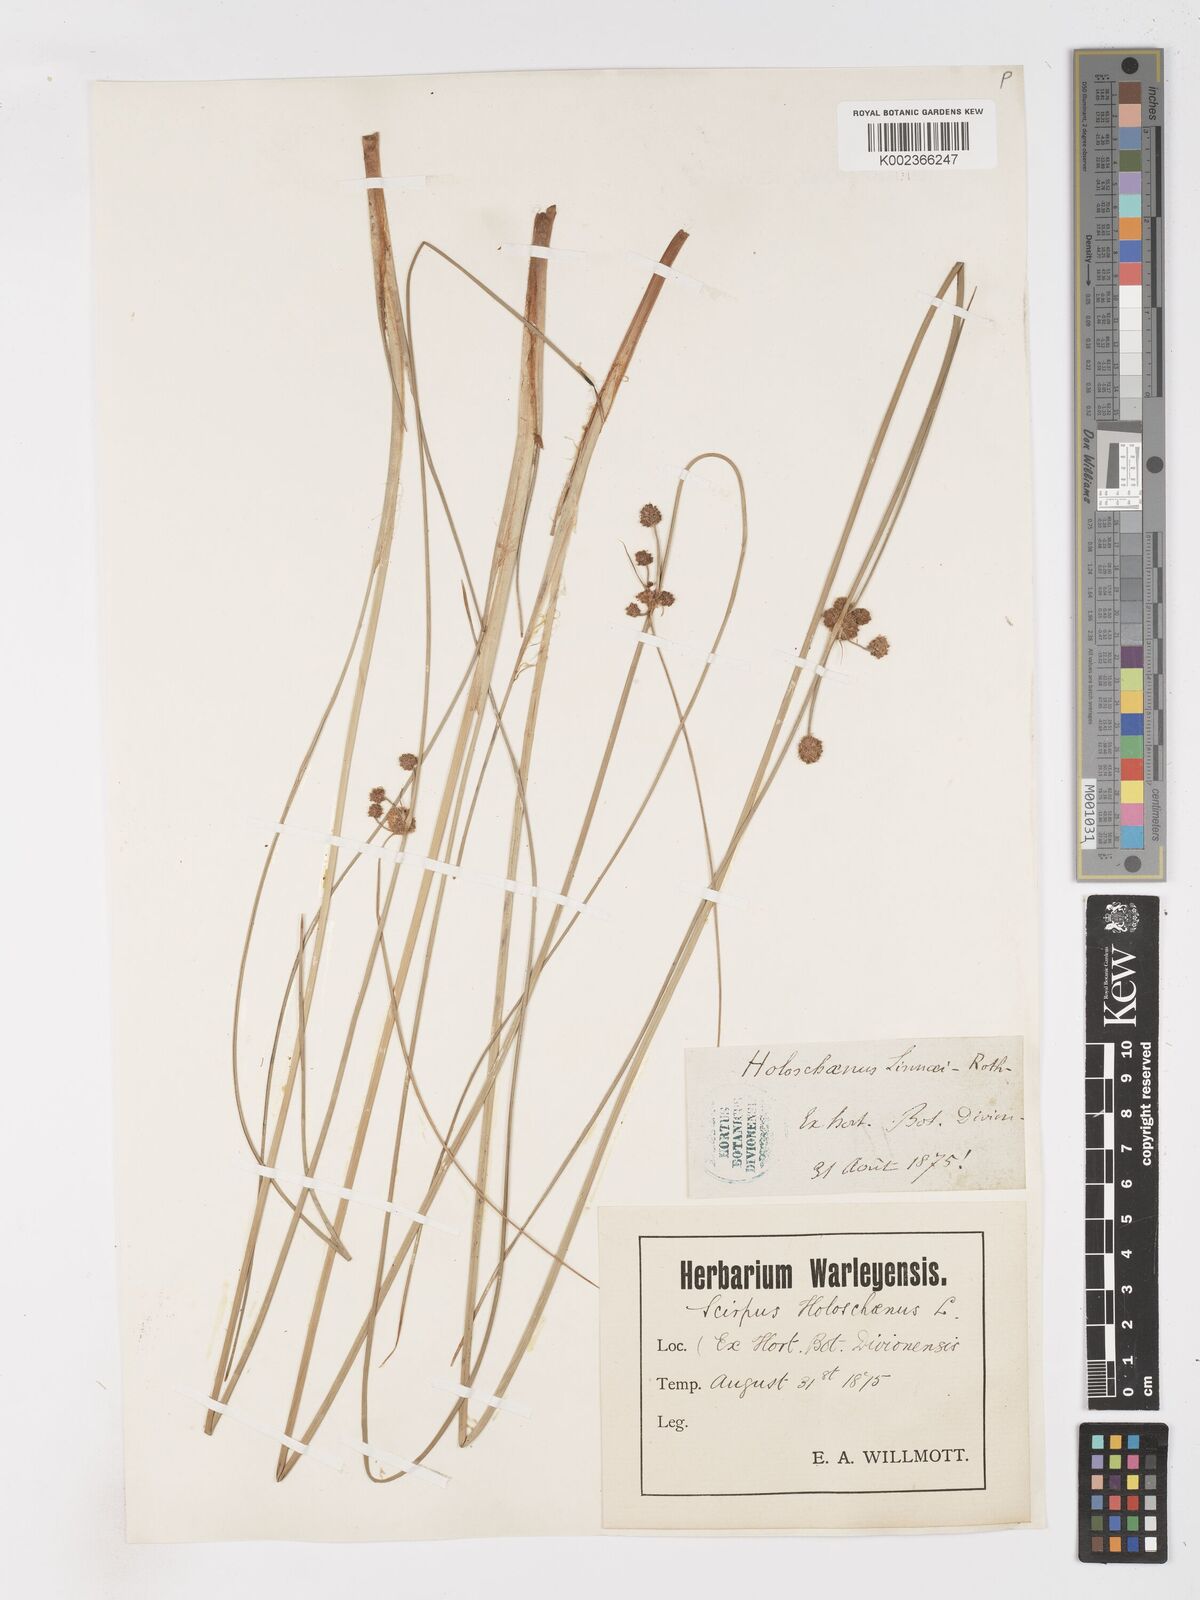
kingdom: Plantae
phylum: Tracheophyta
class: Liliopsida
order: Poales
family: Cyperaceae
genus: Scirpoides
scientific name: Scirpoides holoschoenus
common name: Round-headed club-rush
